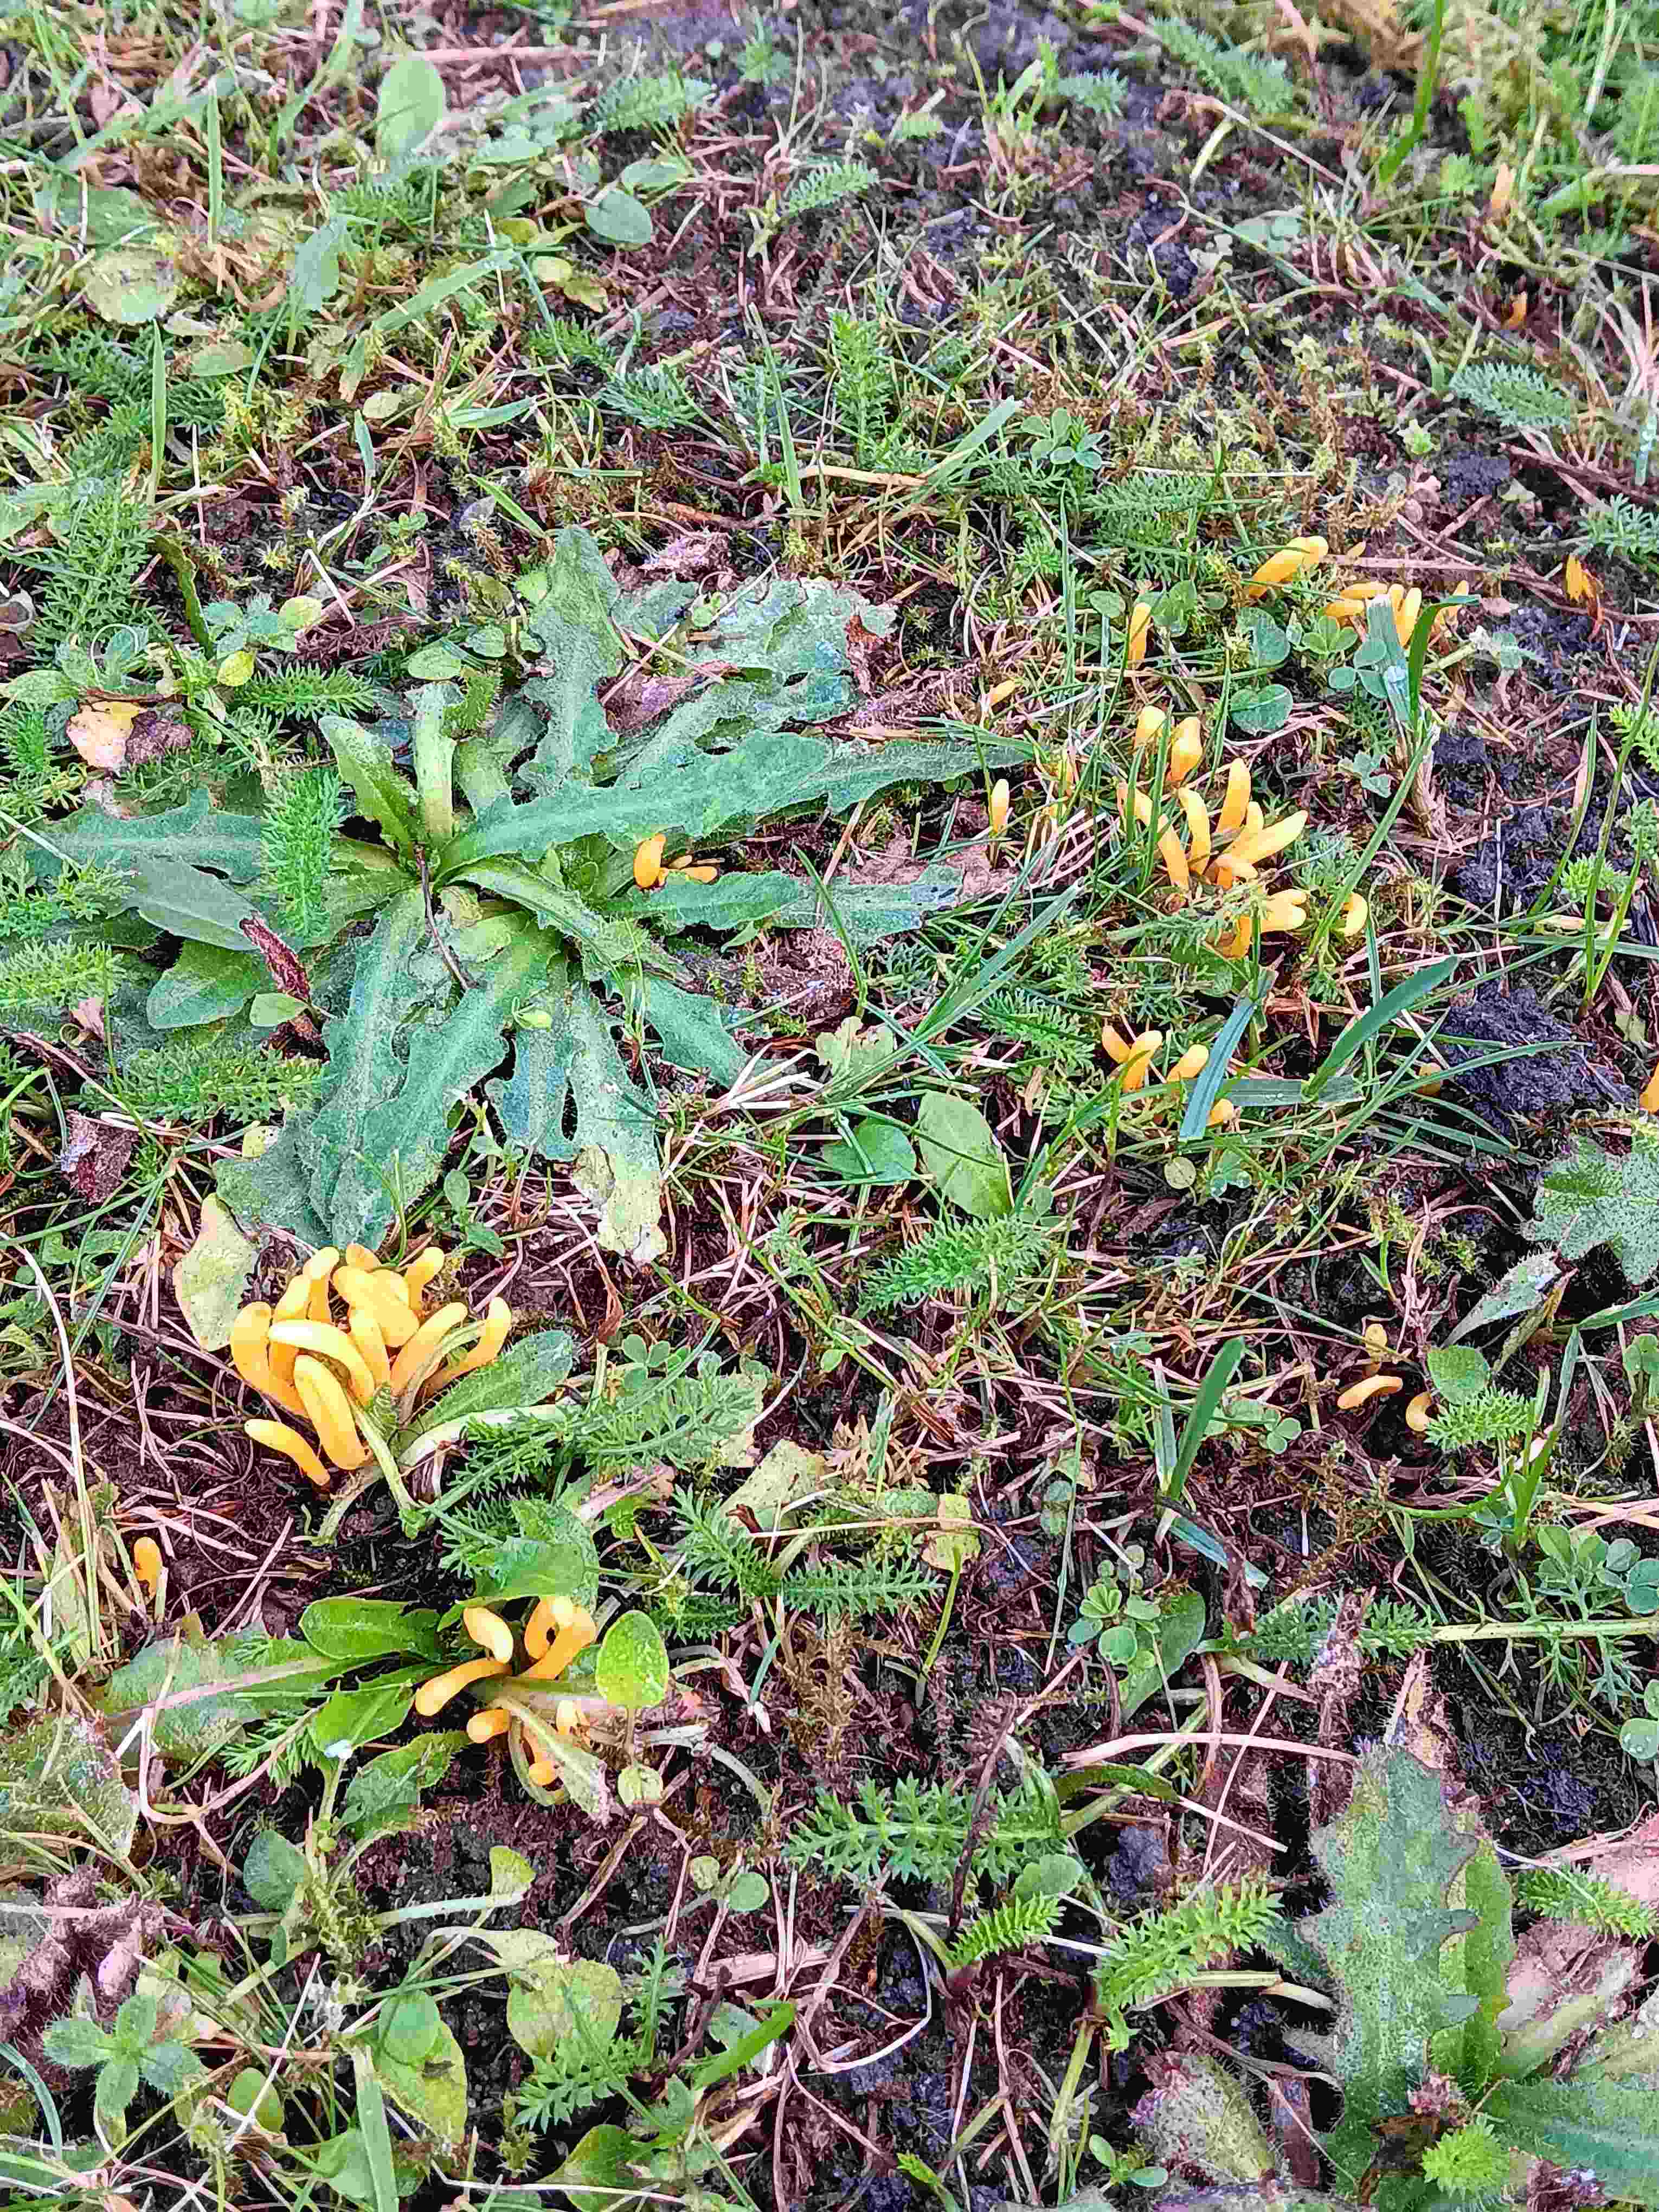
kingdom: Fungi
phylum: Basidiomycota
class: Agaricomycetes
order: Agaricales
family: Clavariaceae
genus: Clavulinopsis
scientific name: Clavulinopsis
